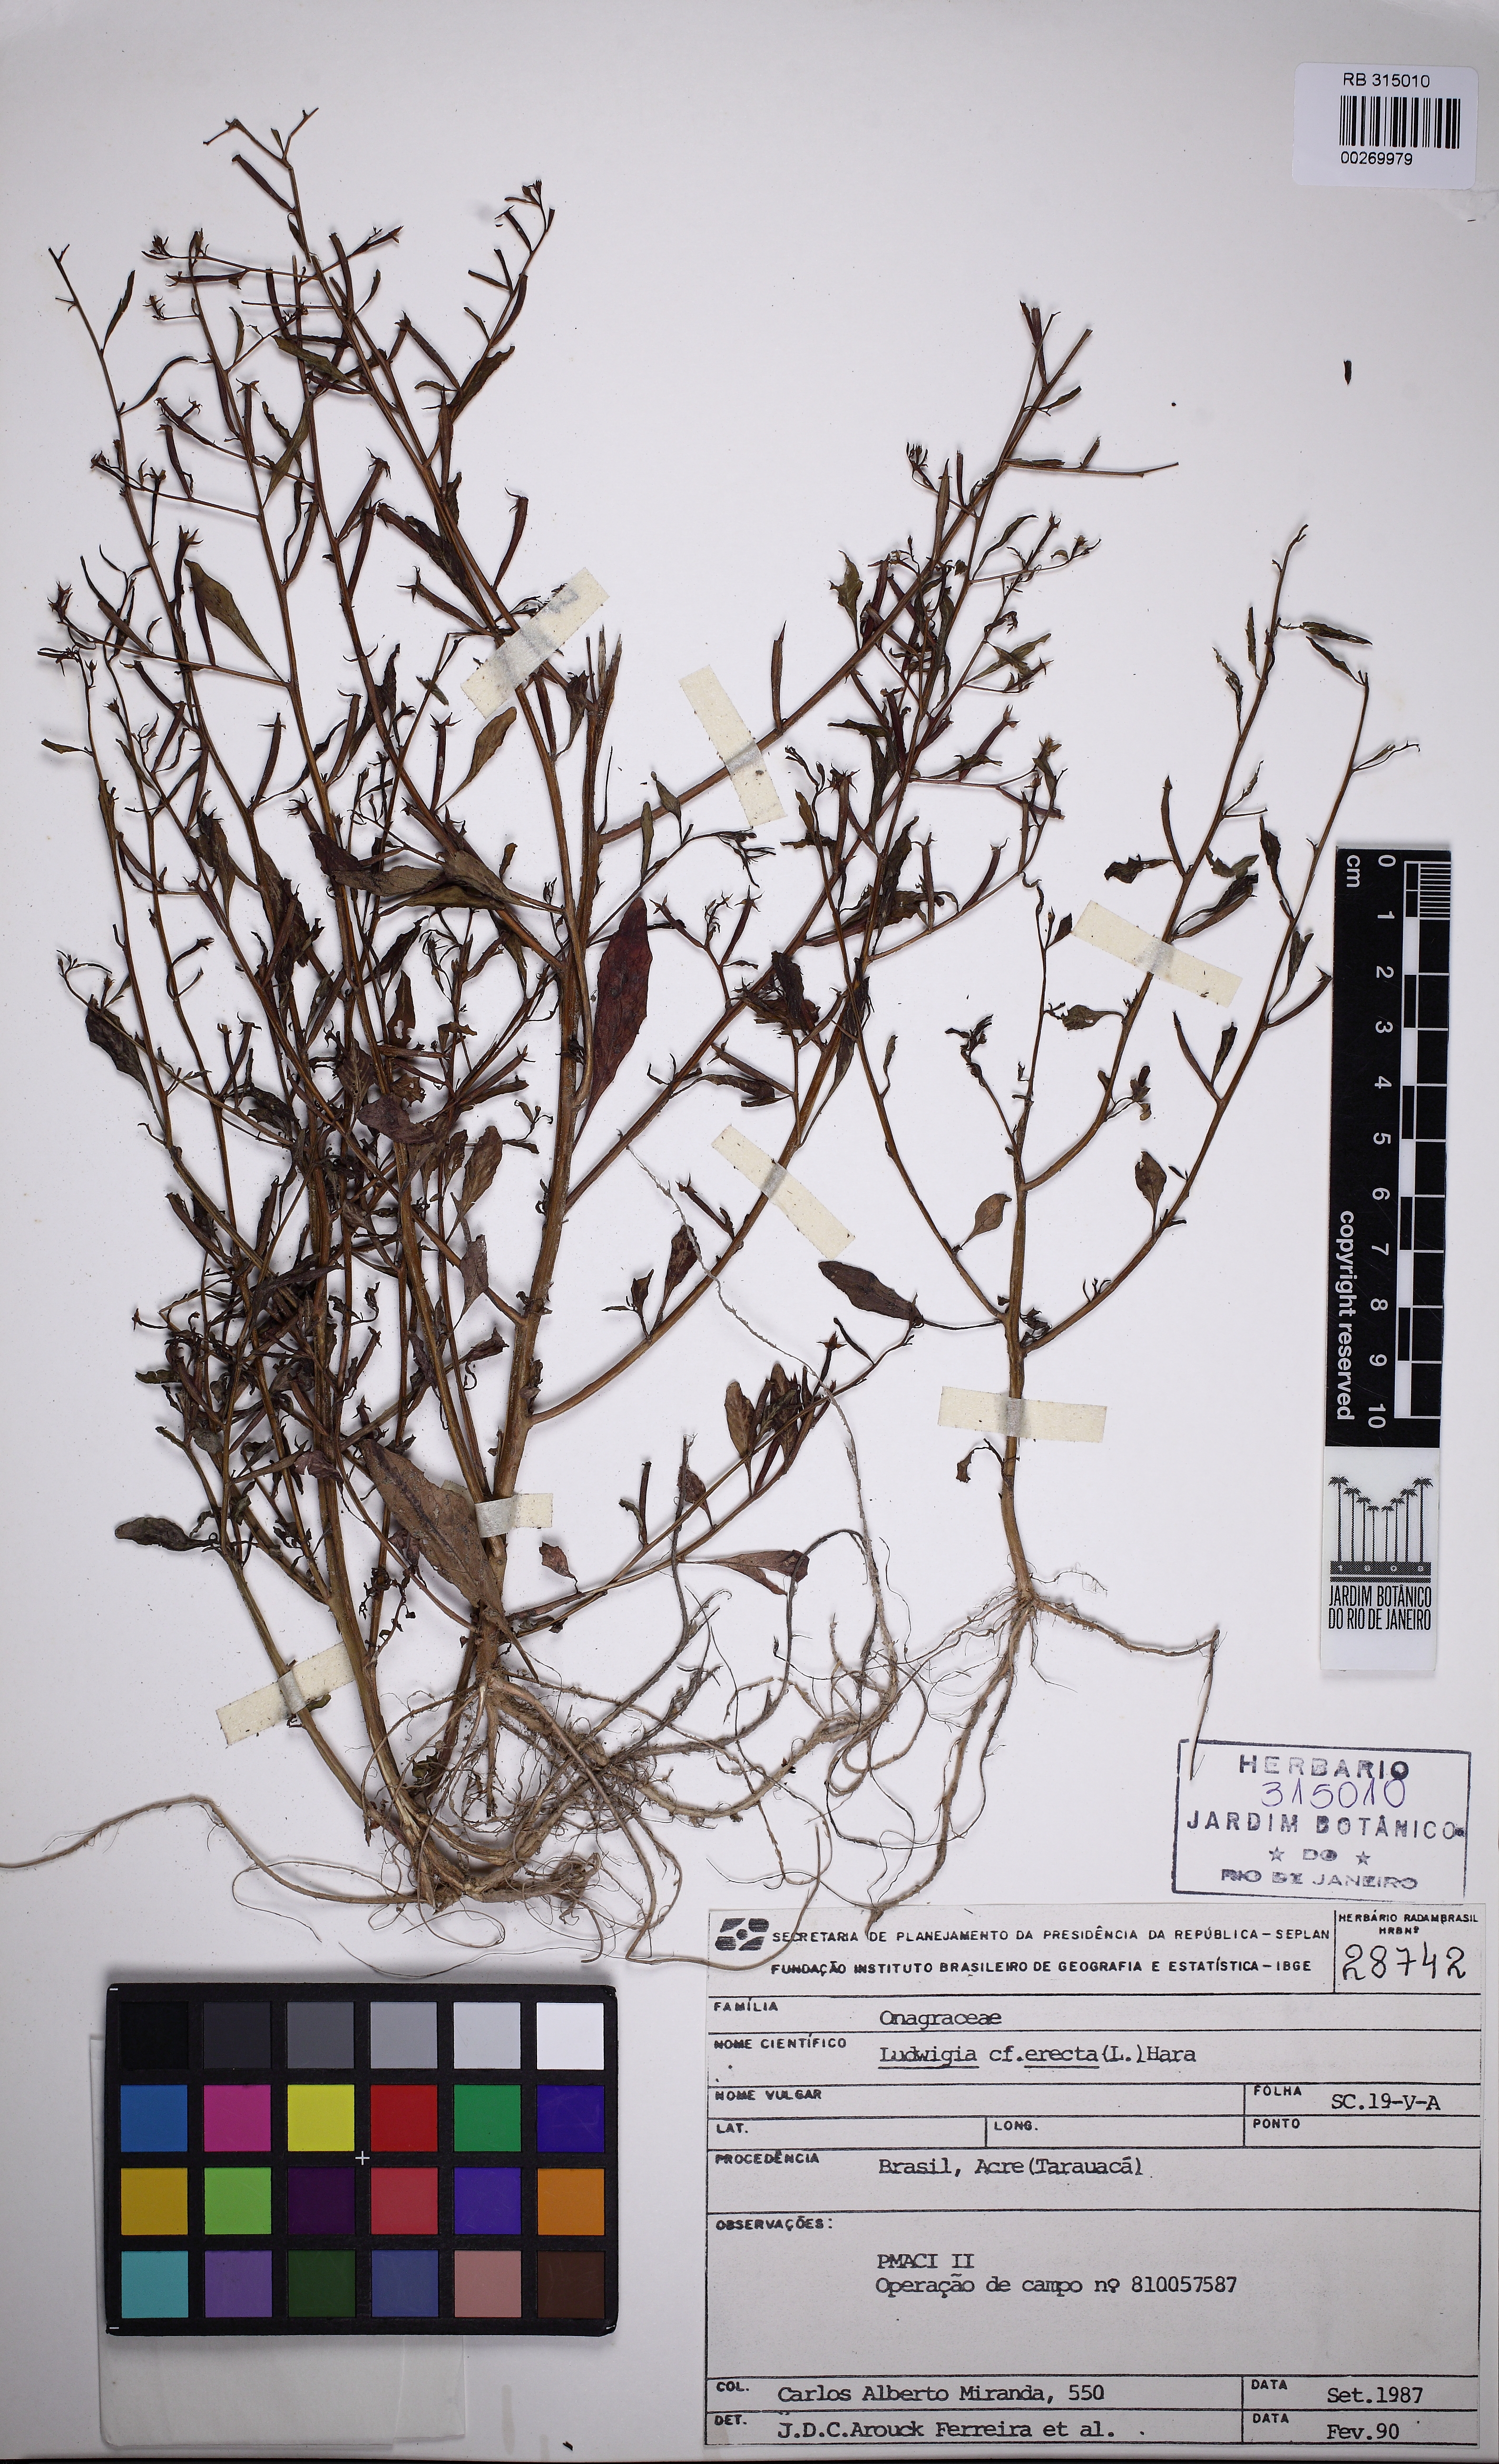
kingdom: Plantae
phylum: Tracheophyta
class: Magnoliopsida
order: Myrtales
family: Onagraceae
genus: Ludwigia
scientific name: Ludwigia erecta
